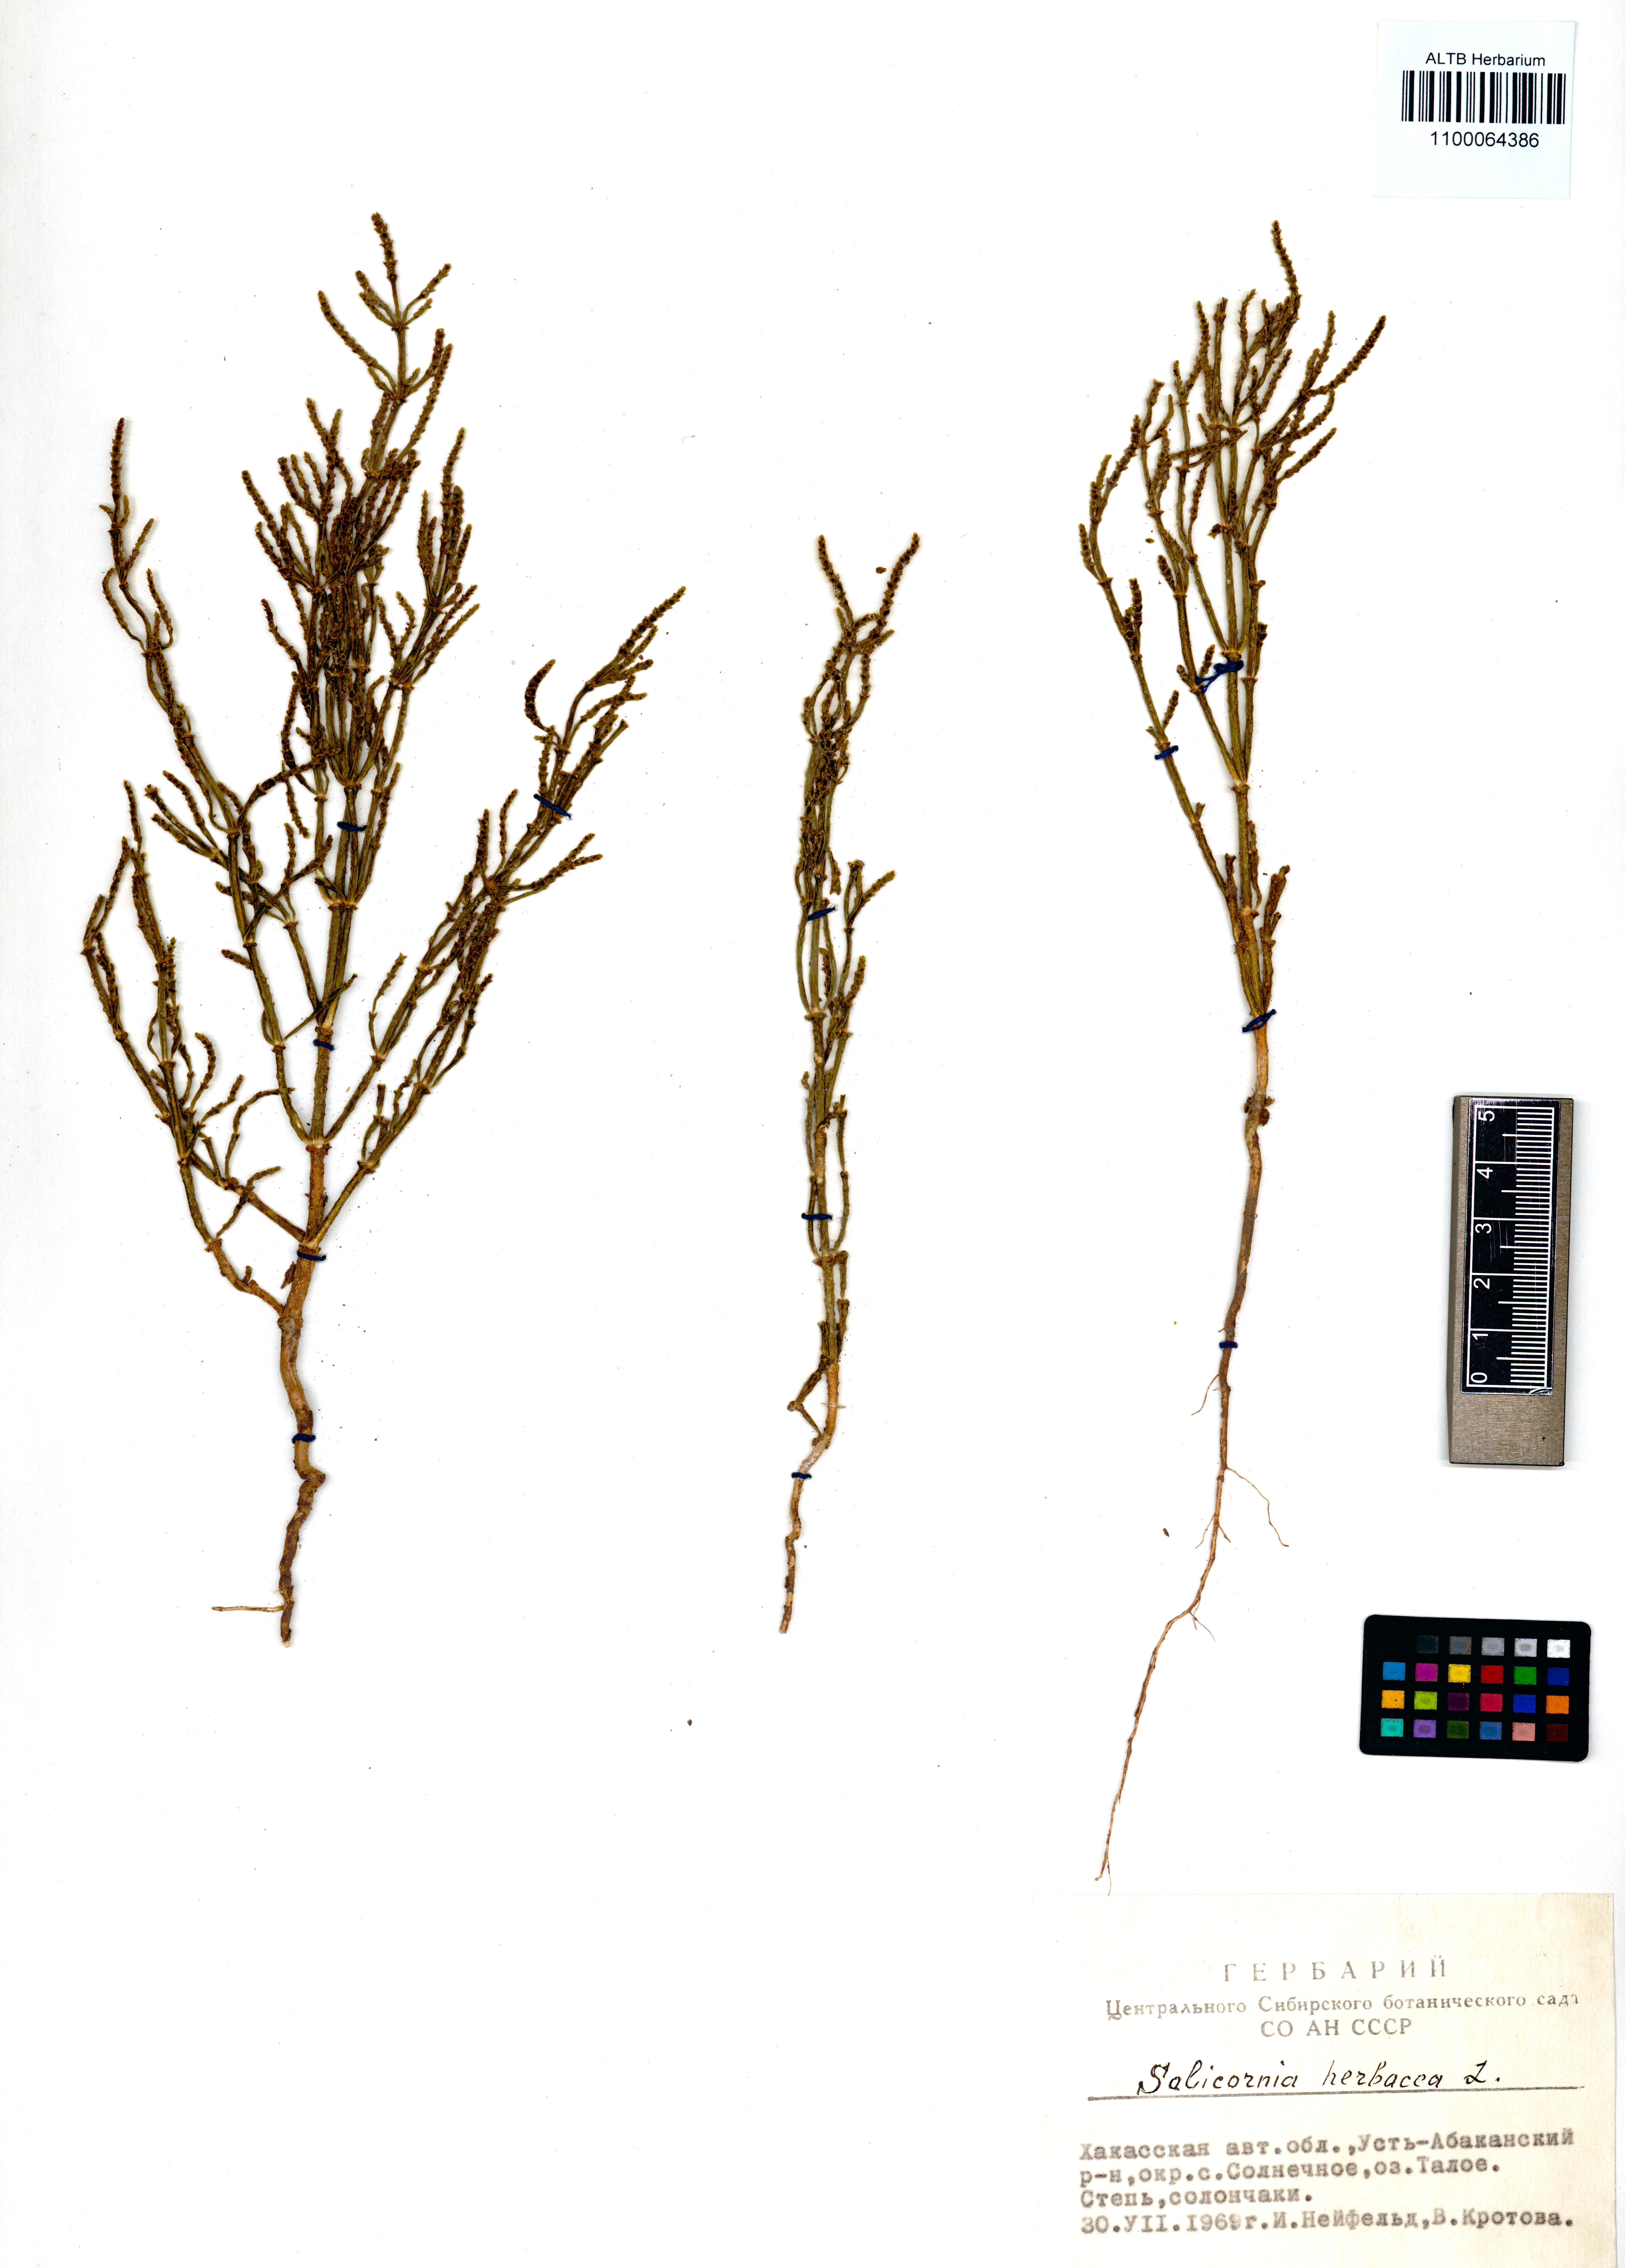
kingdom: Plantae
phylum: Tracheophyta
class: Magnoliopsida
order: Caryophyllales
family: Amaranthaceae
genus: Salicornia
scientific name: Salicornia europaea
